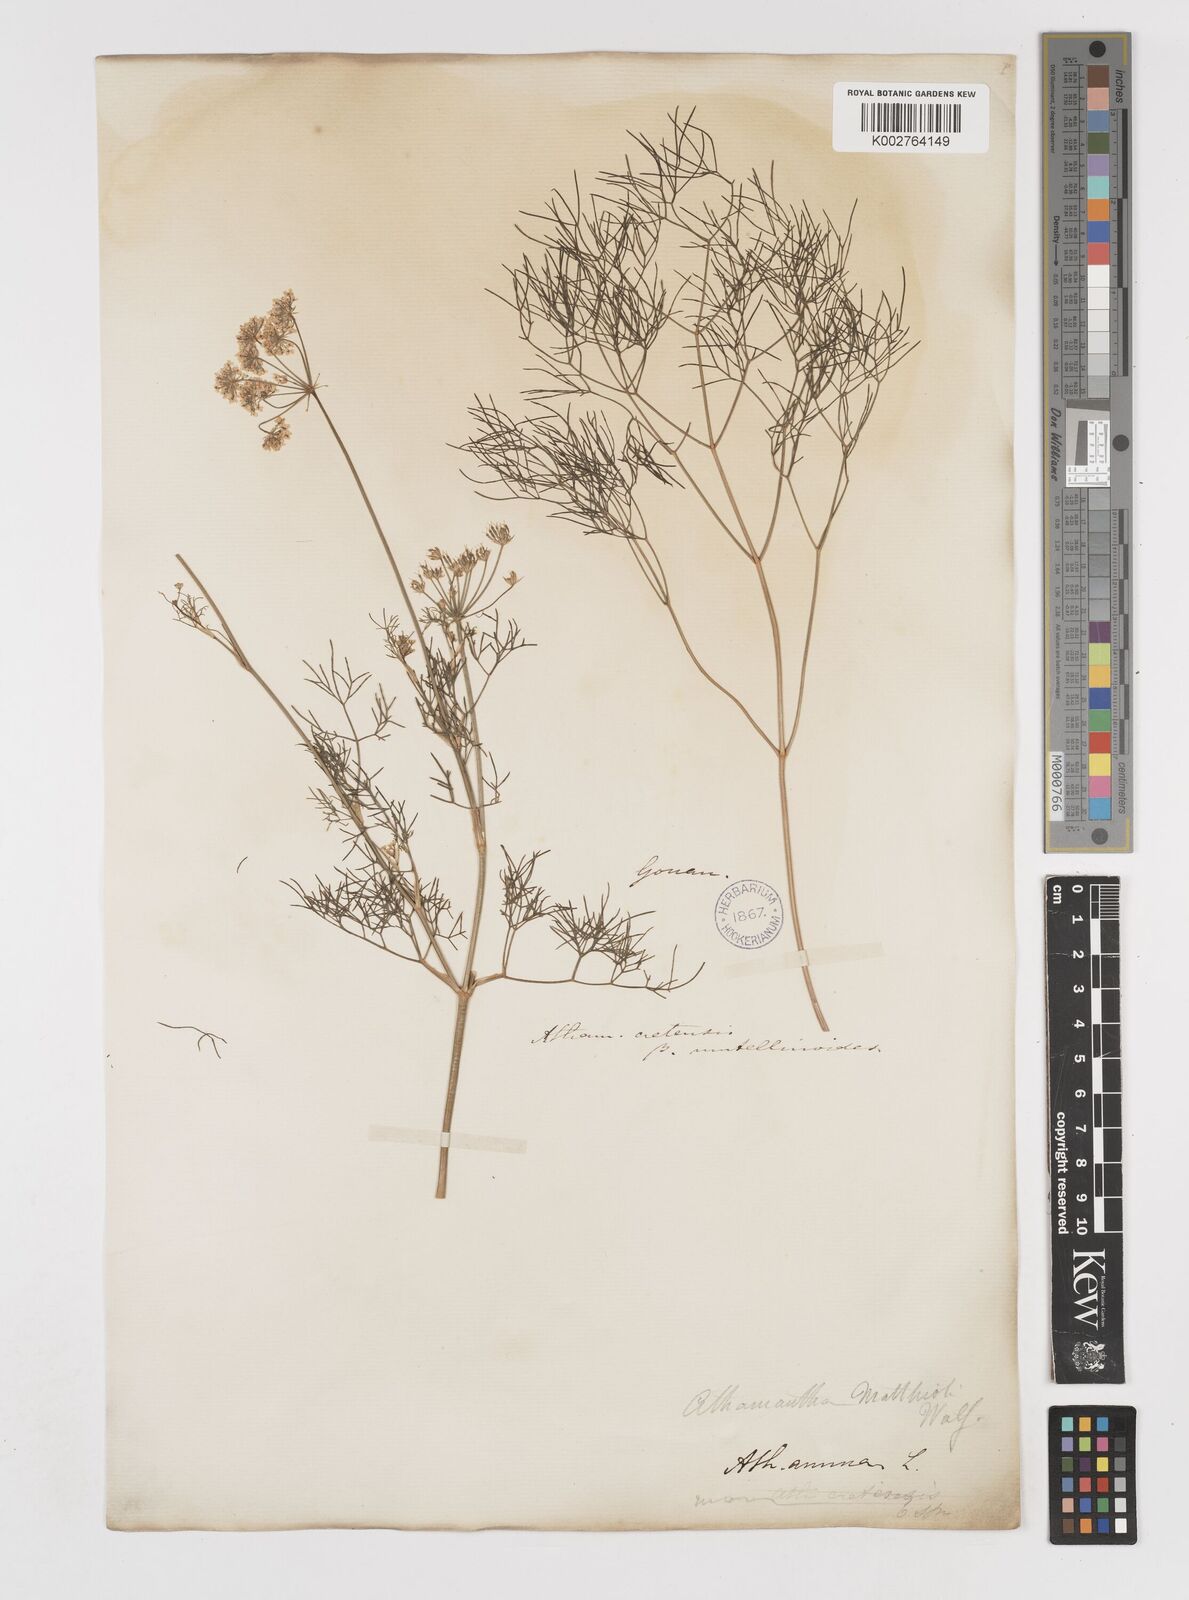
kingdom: Plantae
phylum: Tracheophyta
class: Magnoliopsida
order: Apiales
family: Apiaceae
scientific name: Apiaceae
